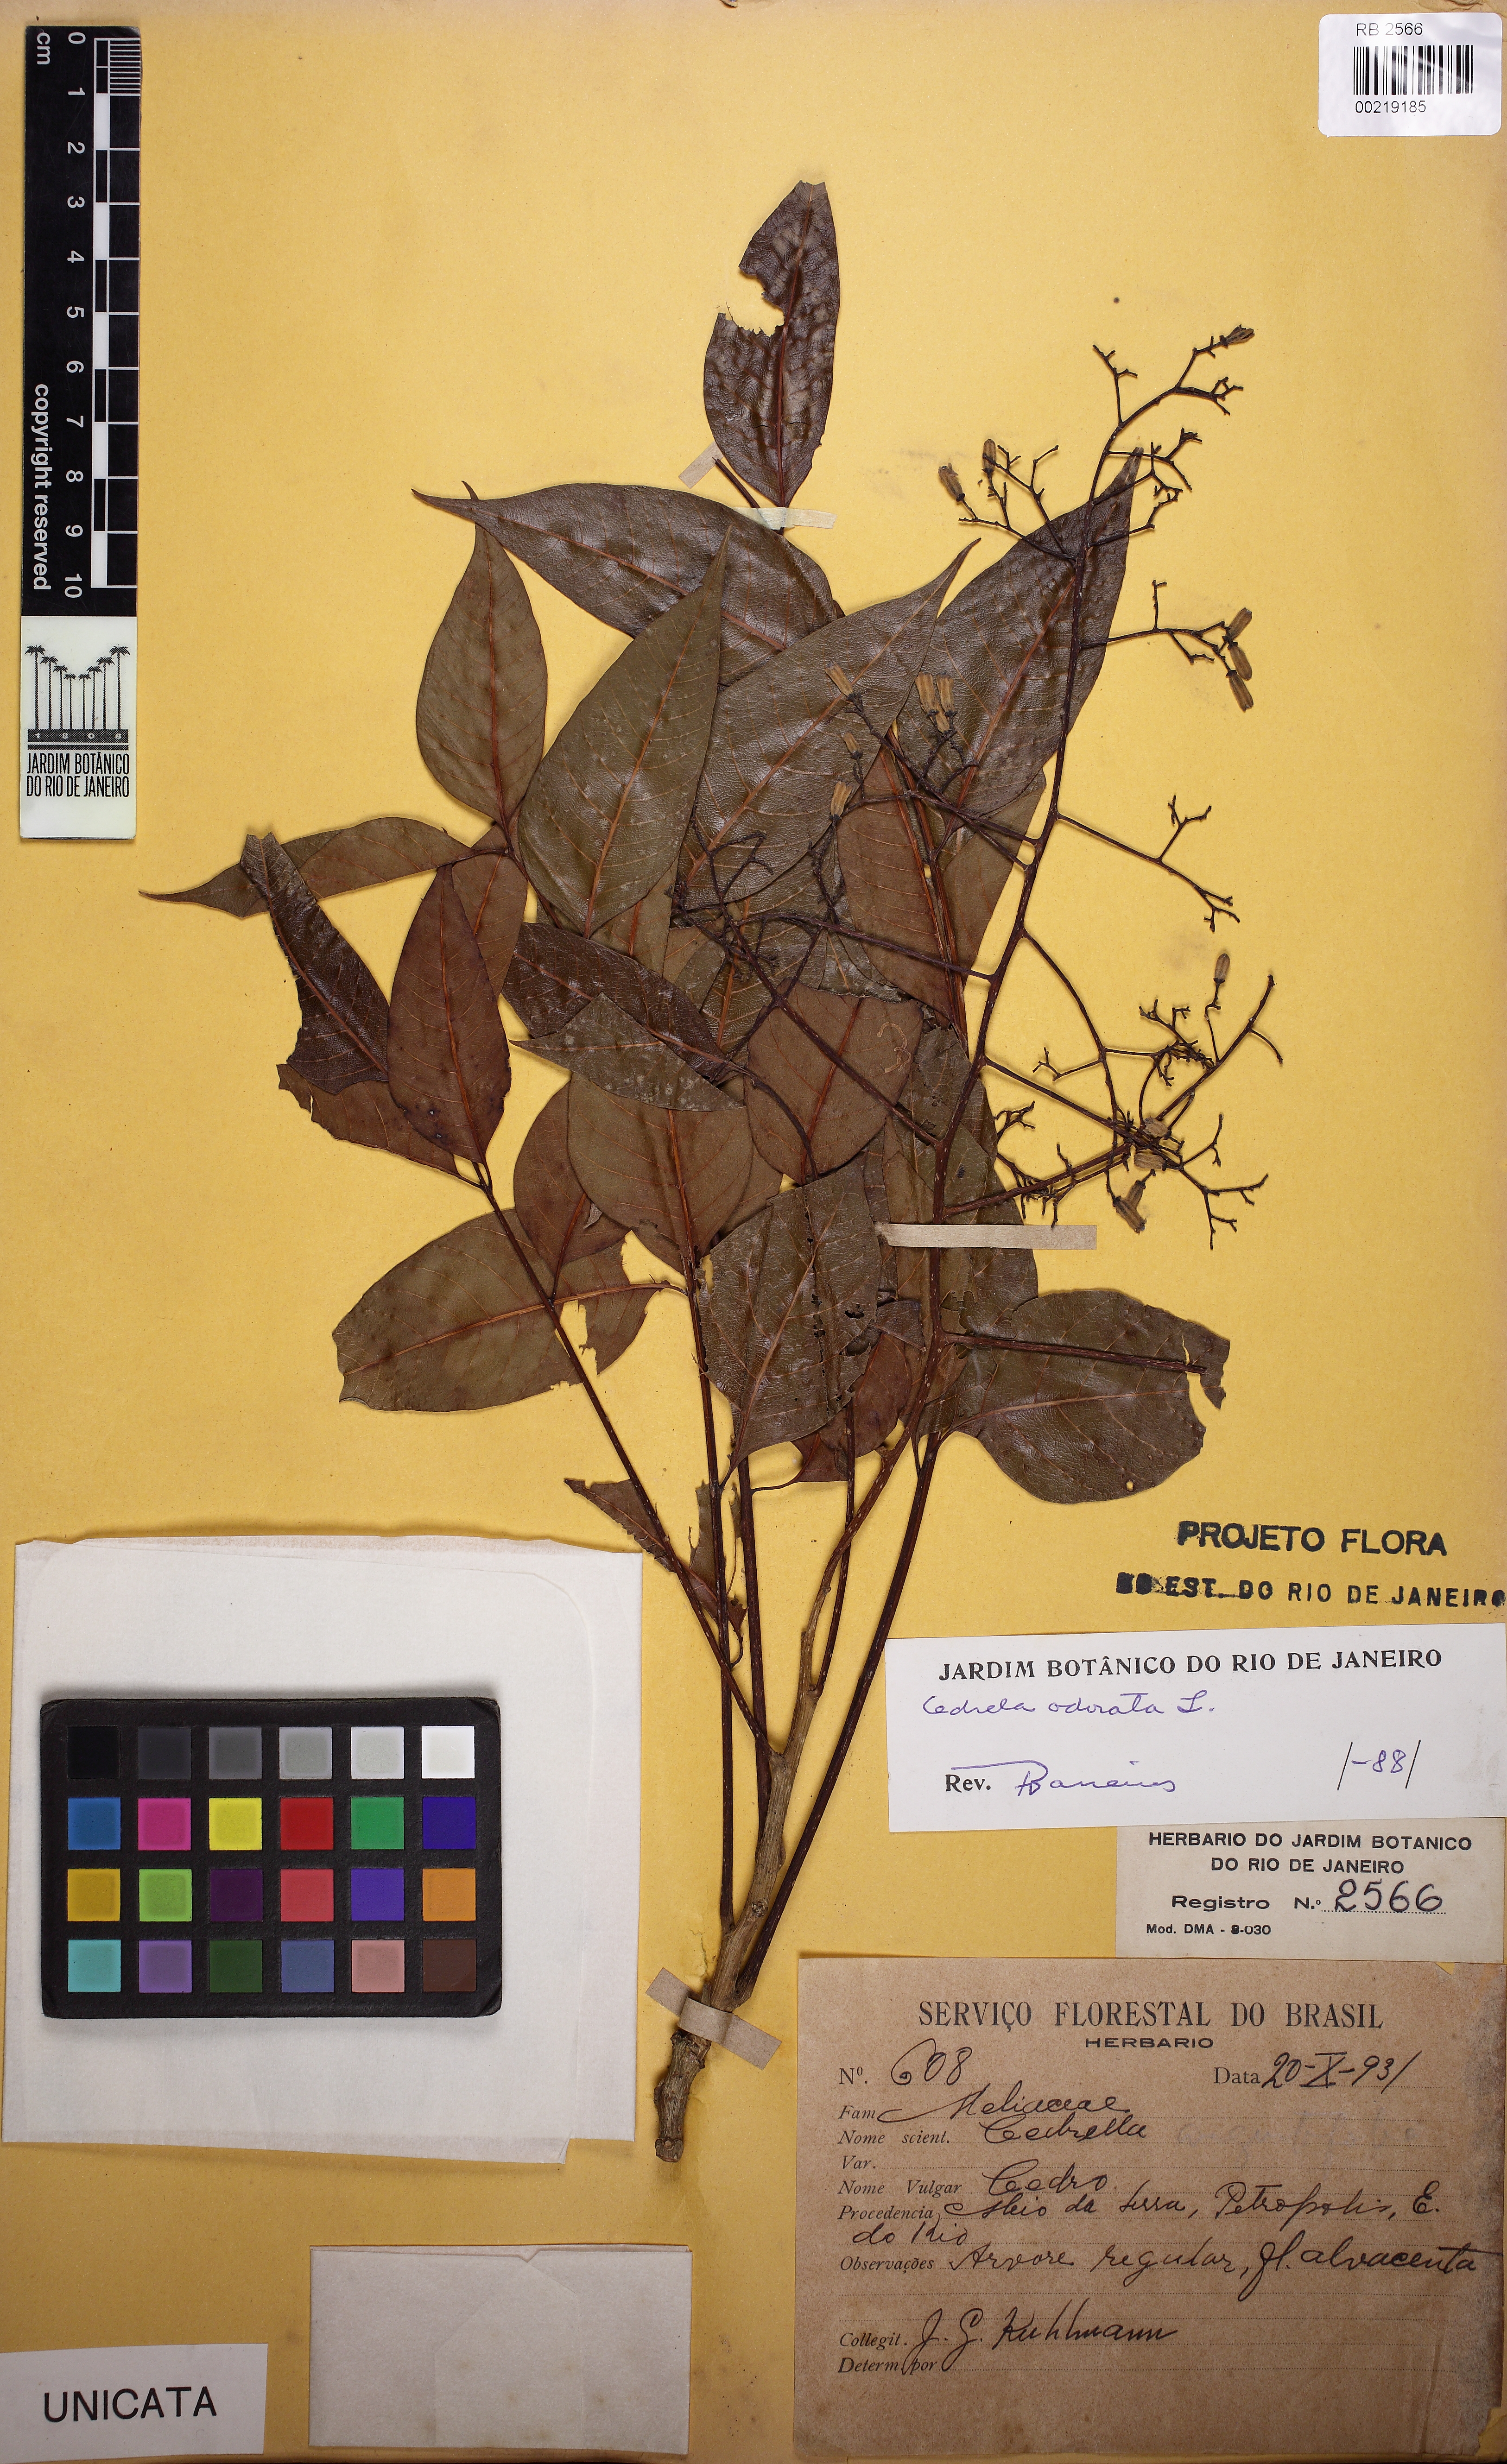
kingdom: Plantae
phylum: Tracheophyta
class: Magnoliopsida
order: Sapindales
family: Meliaceae
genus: Cedrela
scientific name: Cedrela odorata
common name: Red cedar
